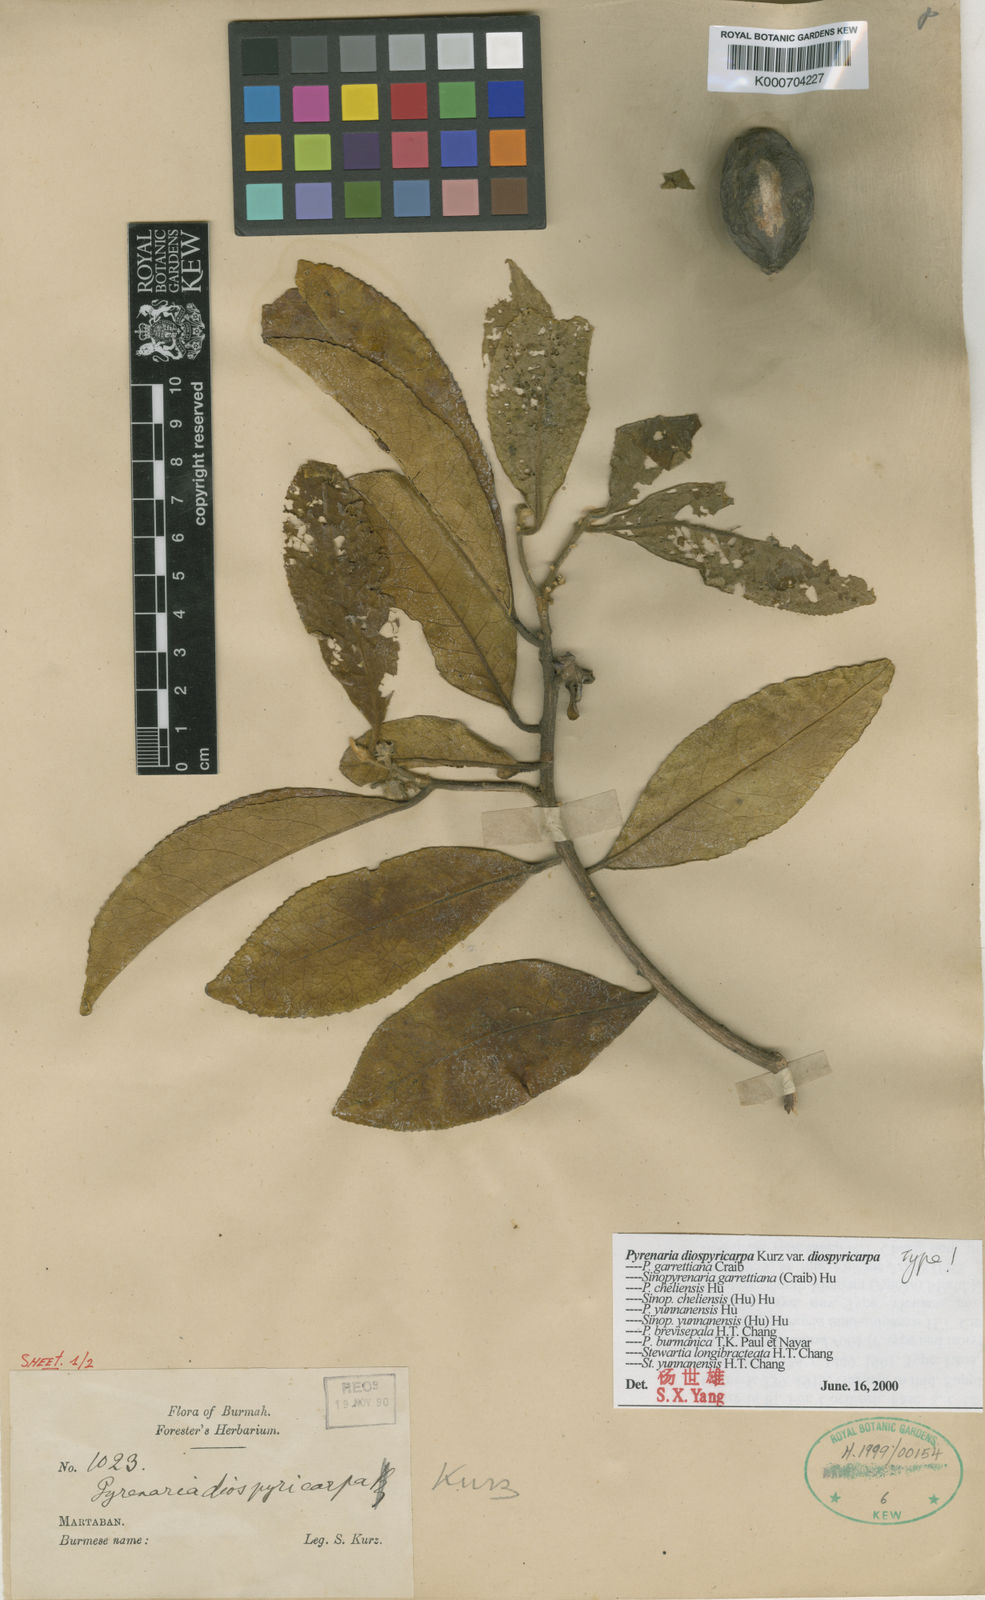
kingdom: Plantae
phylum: Tracheophyta
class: Magnoliopsida
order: Ericales
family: Theaceae
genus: Pyrenaria
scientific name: Pyrenaria diospyricarpa
